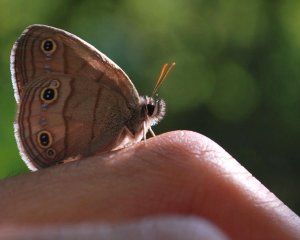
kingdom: Animalia
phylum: Arthropoda
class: Insecta
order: Lepidoptera
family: Nymphalidae
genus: Euptychia
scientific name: Euptychia cymela
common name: Little Wood Satyr
